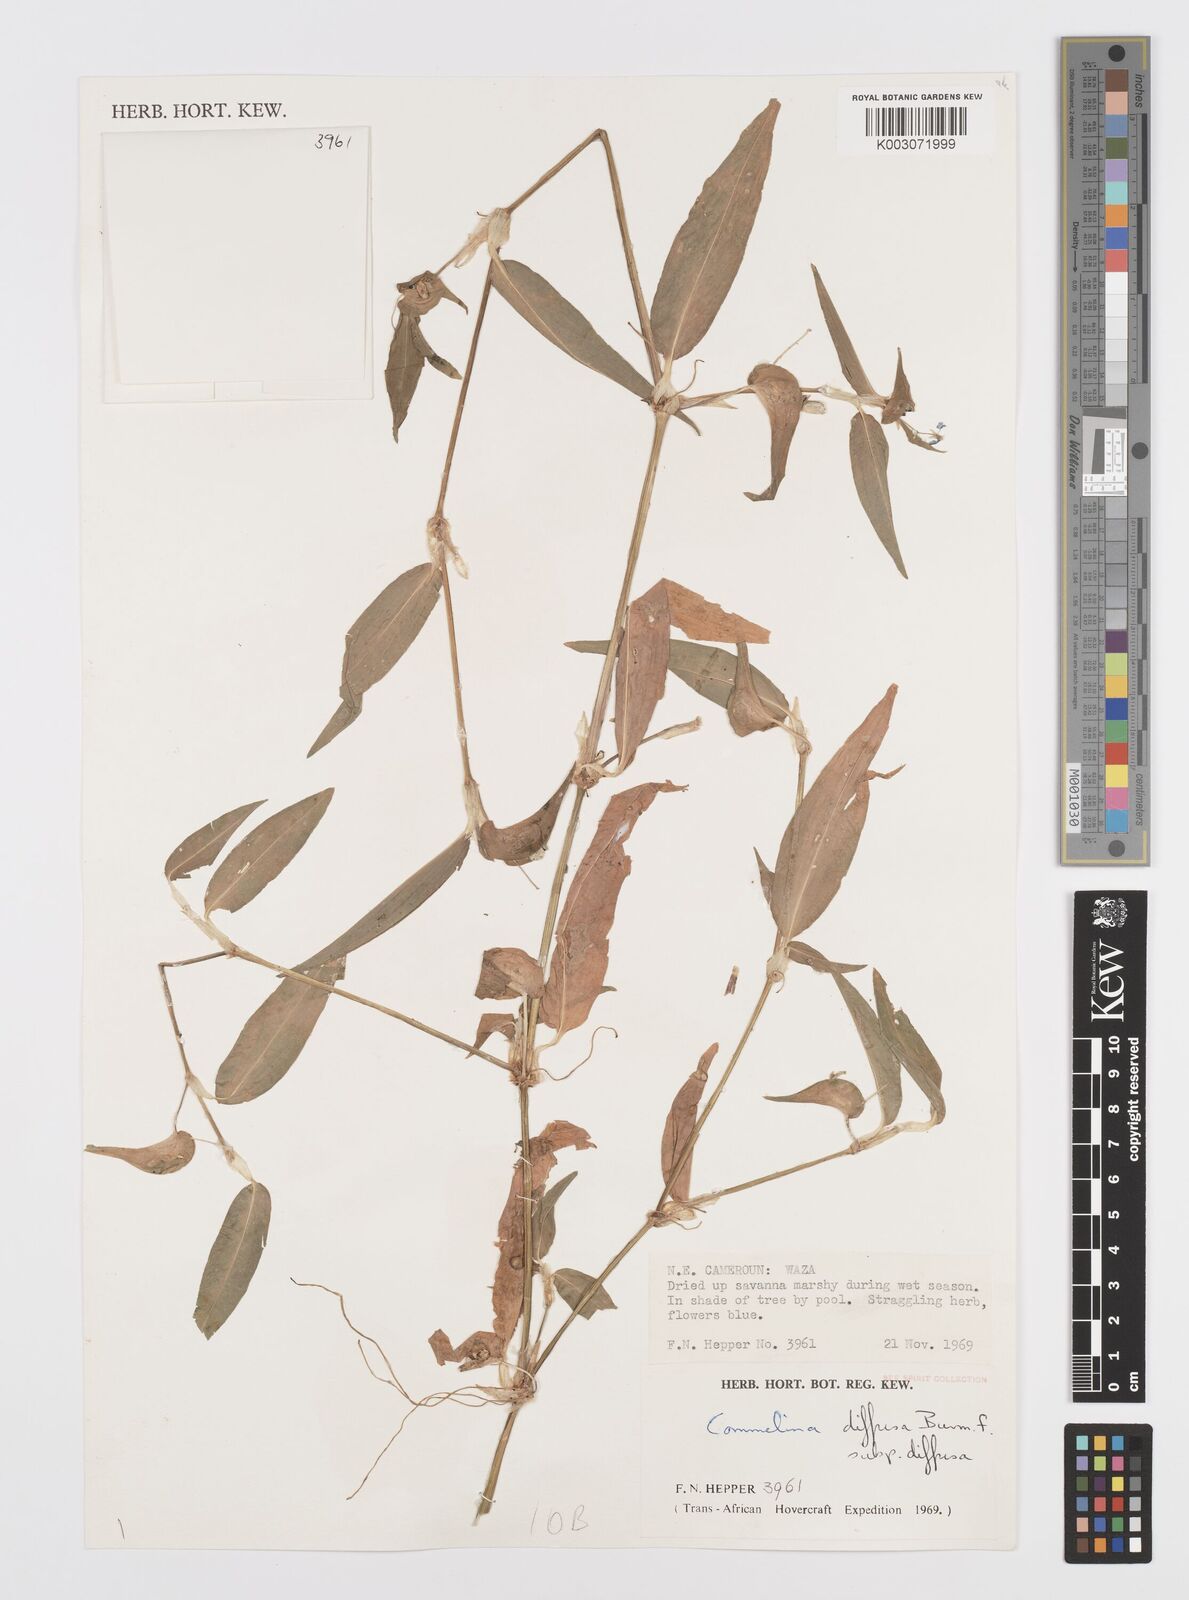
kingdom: Plantae
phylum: Tracheophyta
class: Liliopsida
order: Commelinales
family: Commelinaceae
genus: Commelina
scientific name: Commelina diffusa
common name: Climbing dayflower
